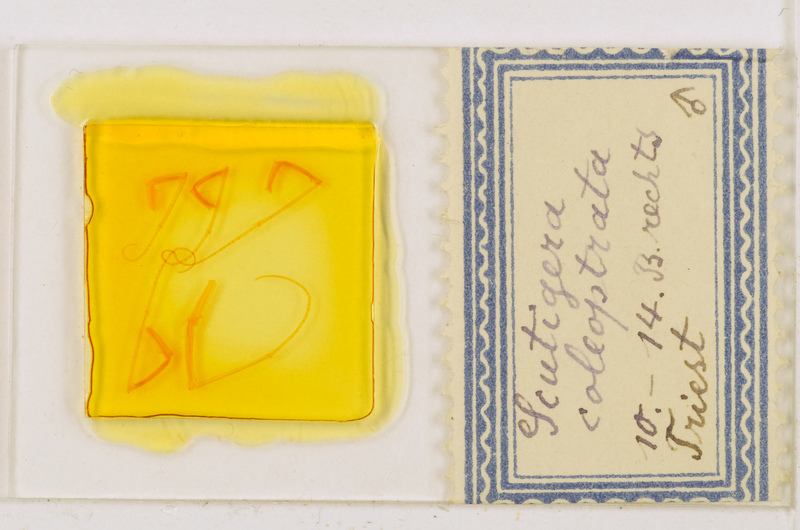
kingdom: Animalia
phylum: Arthropoda
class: Chilopoda
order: Scutigeromorpha
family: Scutigeridae
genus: Scutigera
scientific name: Scutigera coleoptrata
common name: House centipede
